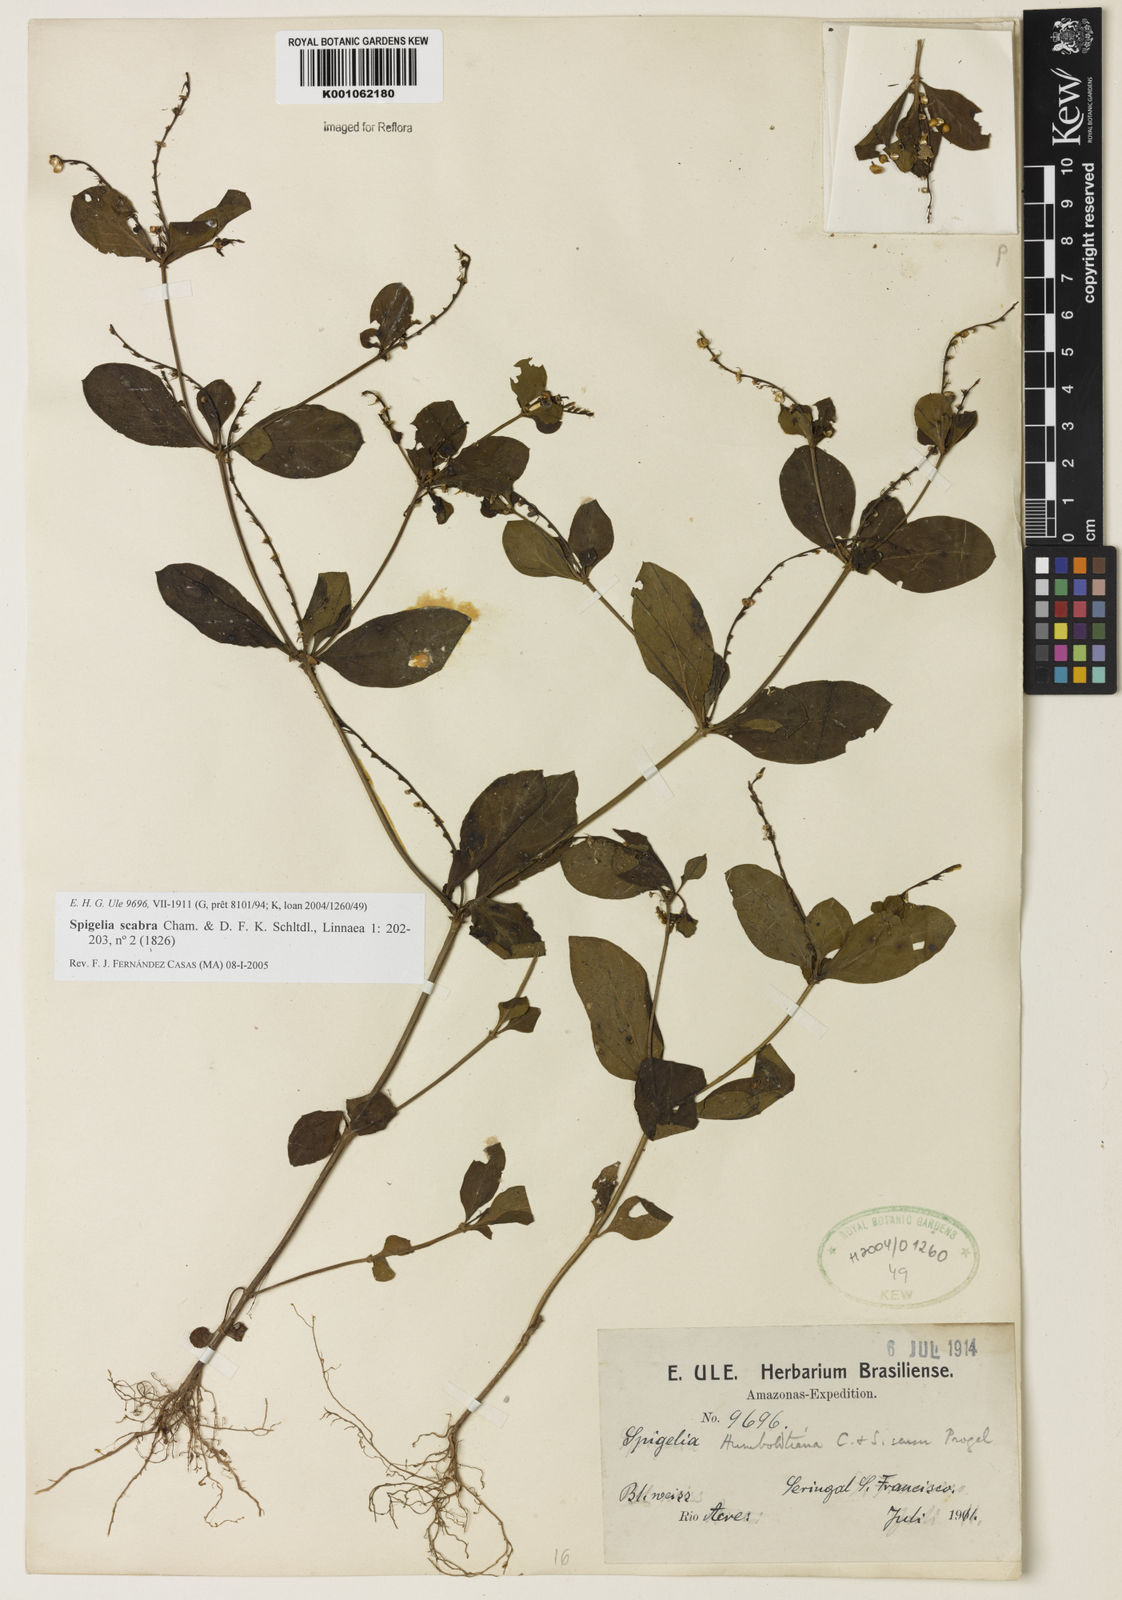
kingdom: Plantae
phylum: Tracheophyta
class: Magnoliopsida
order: Gentianales
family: Loganiaceae
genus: Spigelia
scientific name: Spigelia humboldtiana
